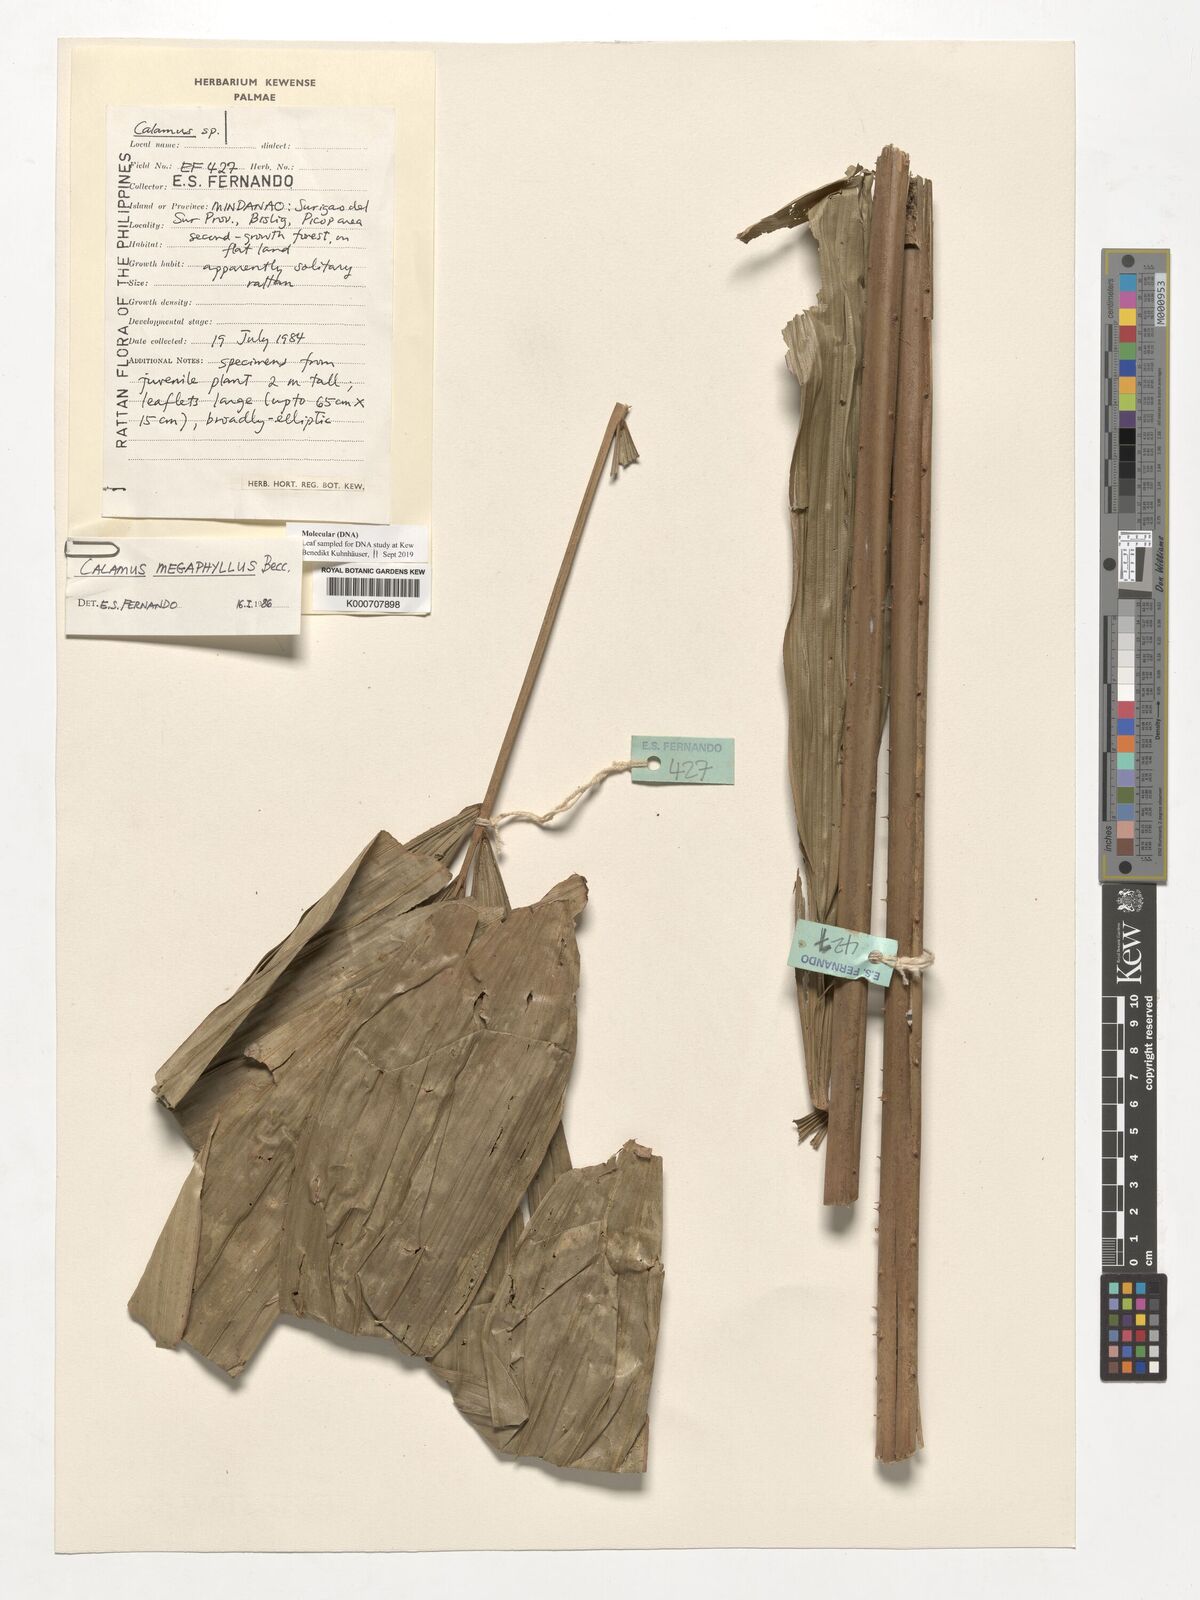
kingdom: Plantae
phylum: Tracheophyta
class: Liliopsida
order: Arecales
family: Arecaceae
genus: Calamus
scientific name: Calamus megaphyllus
